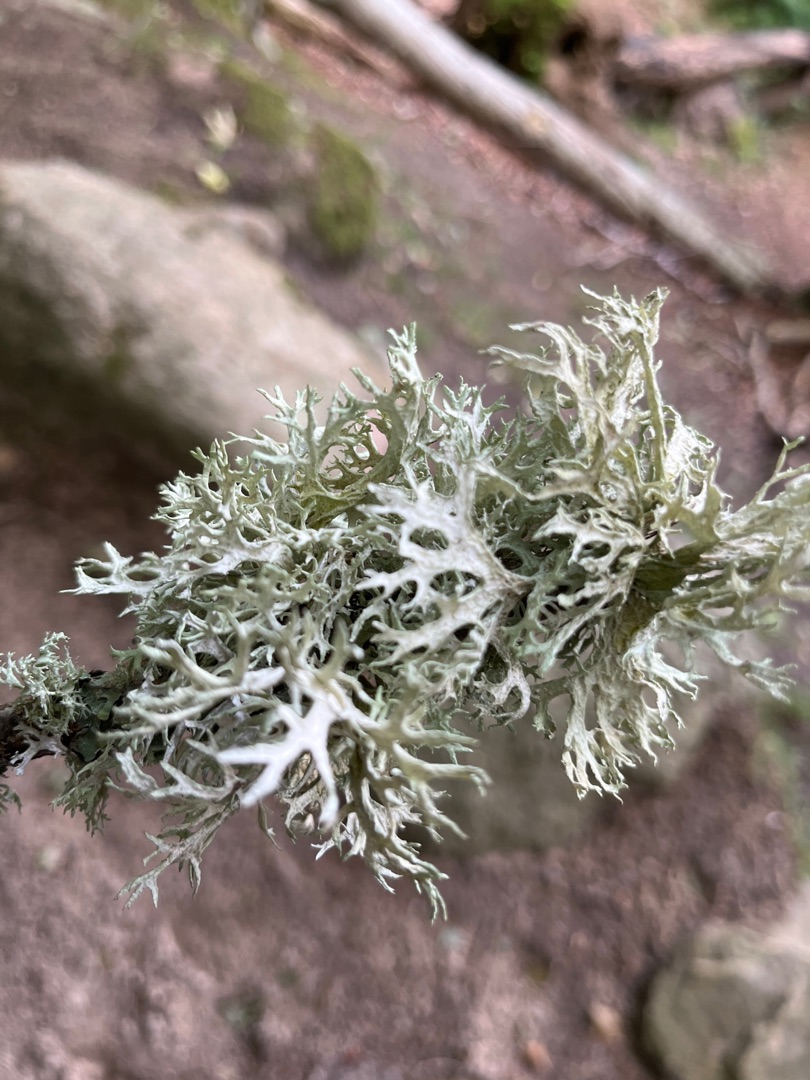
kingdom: Fungi
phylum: Ascomycota
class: Lecanoromycetes
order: Lecanorales
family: Parmeliaceae
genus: Evernia
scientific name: Evernia prunastri
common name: Almindelig slåenlav
